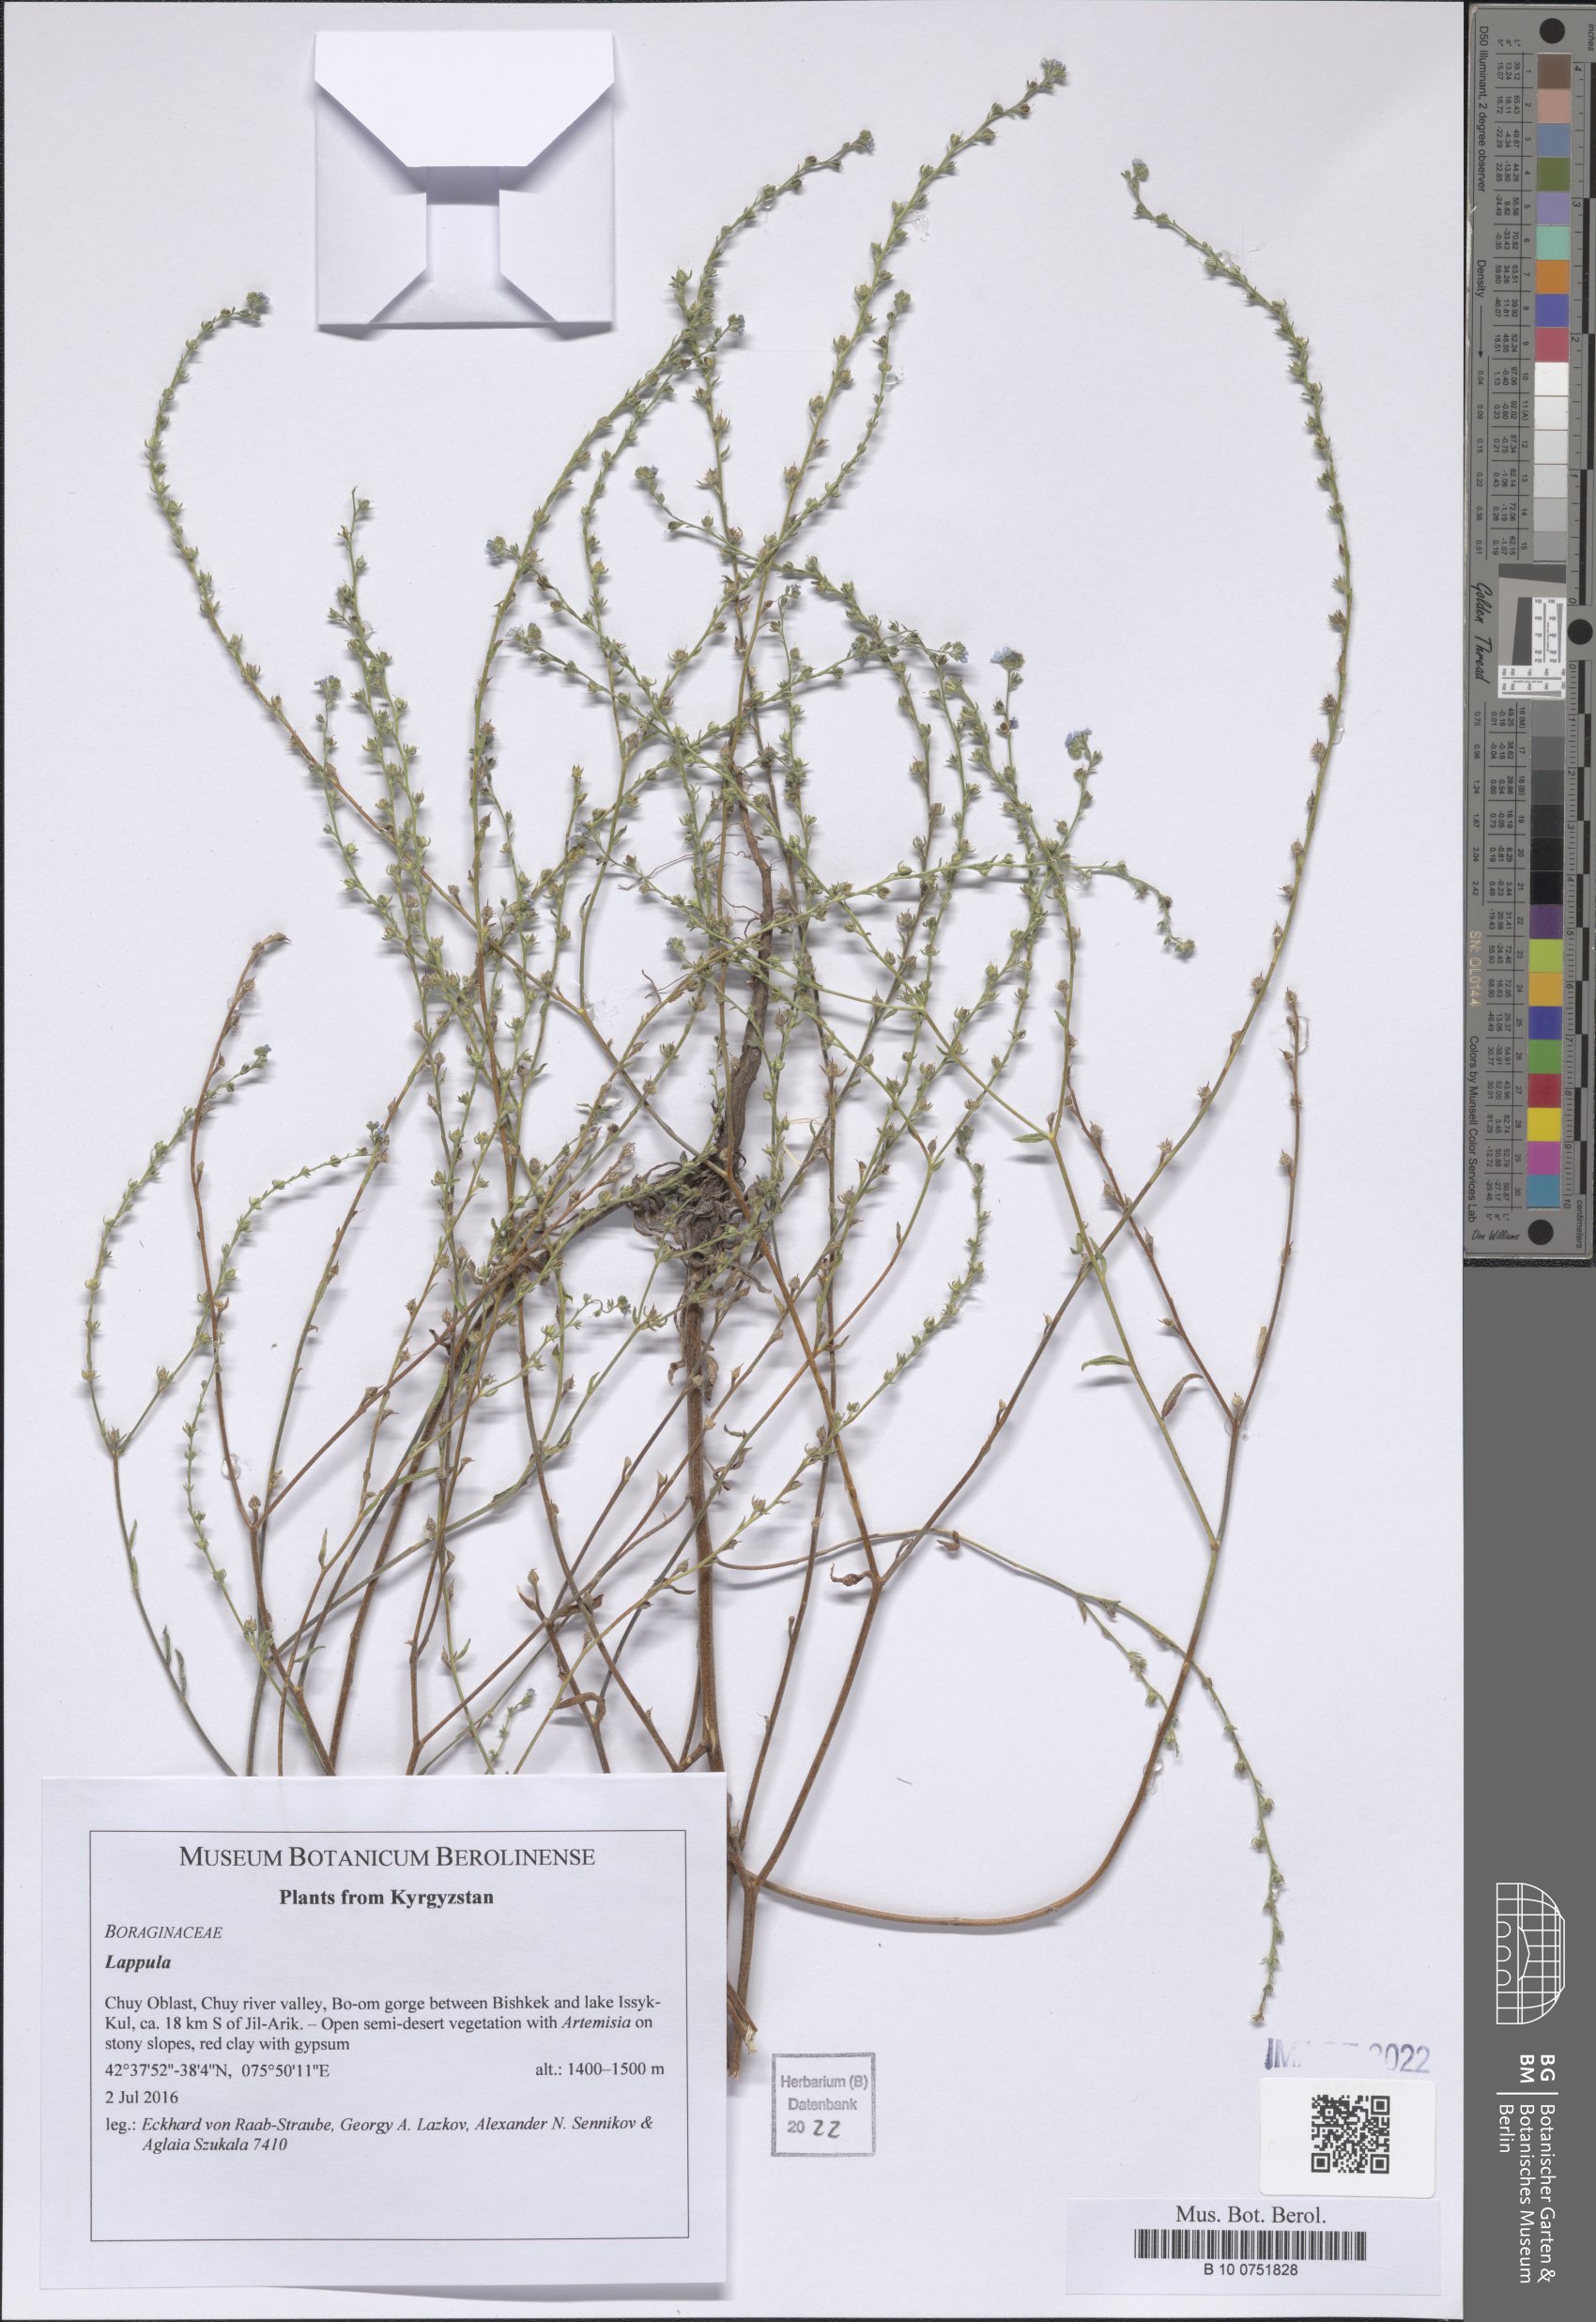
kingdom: Plantae
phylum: Tracheophyta
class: Magnoliopsida
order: Boraginales
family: Boraginaceae
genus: Lappula
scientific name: Lappula
